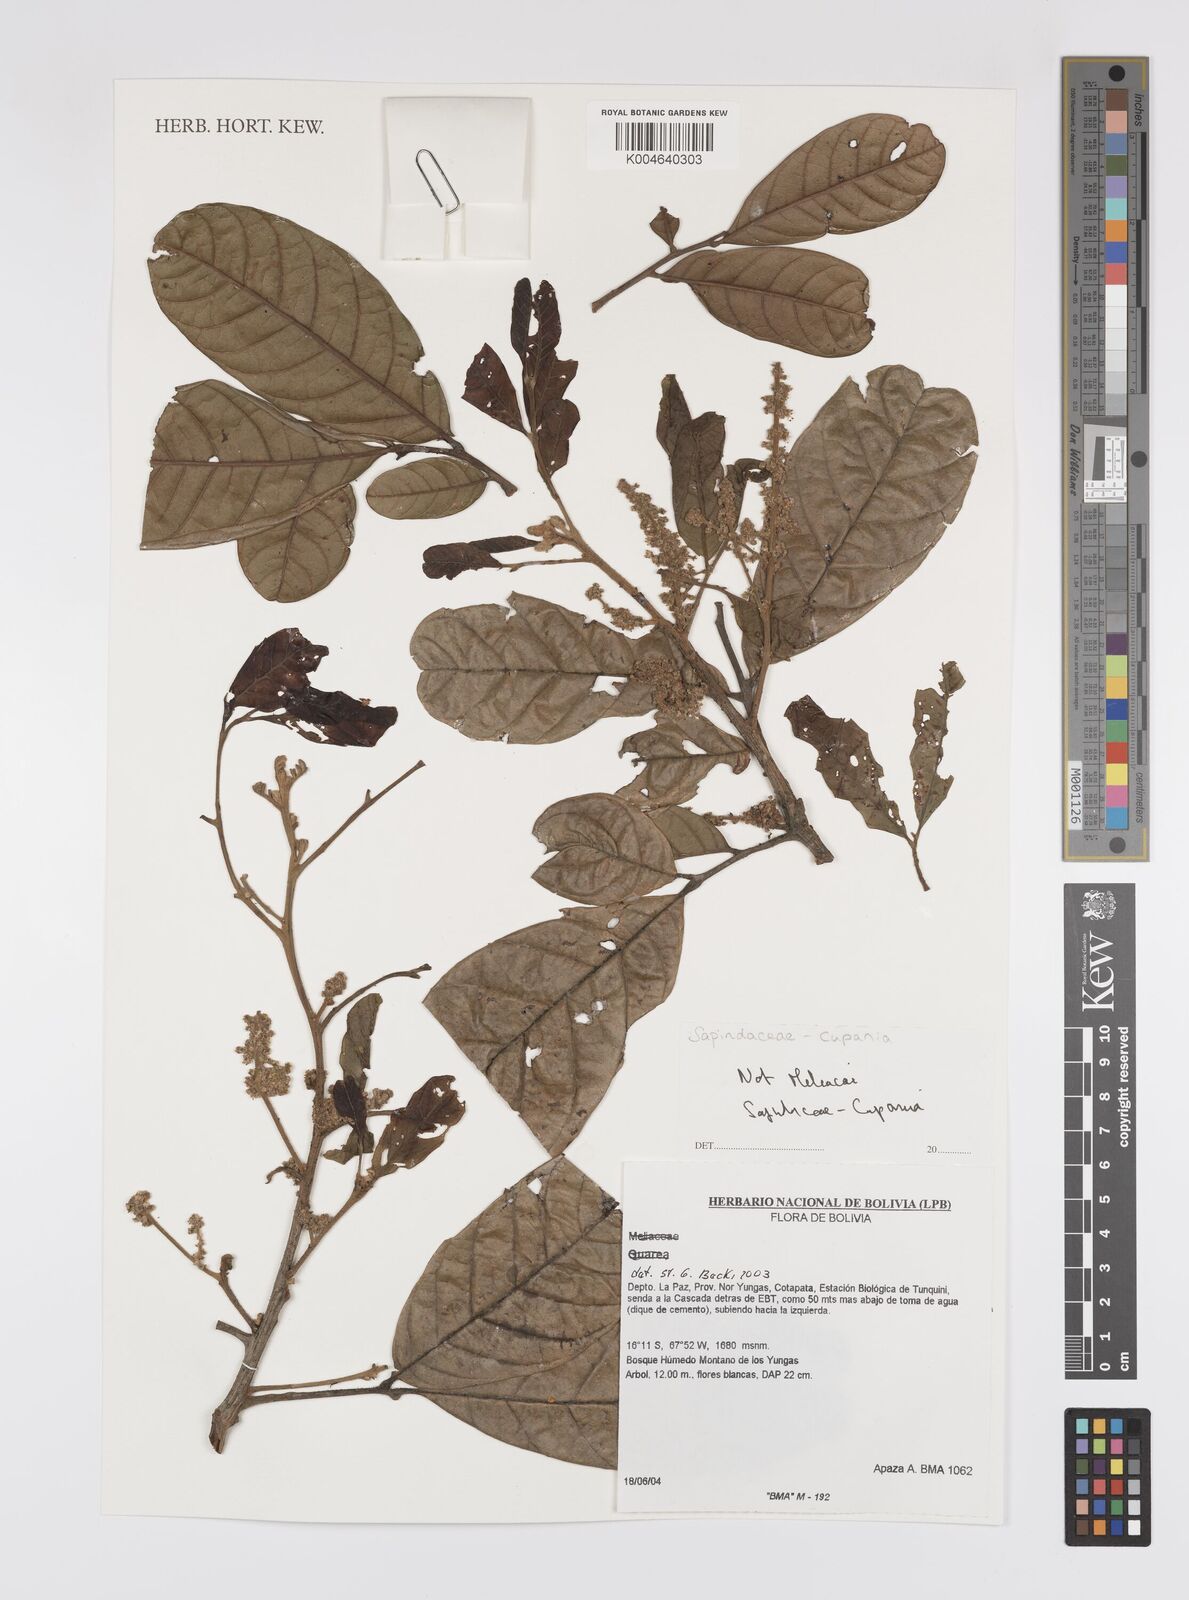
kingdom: Plantae
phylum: Tracheophyta
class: Magnoliopsida
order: Sapindales
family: Sapindaceae
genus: Cupania
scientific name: Cupania
